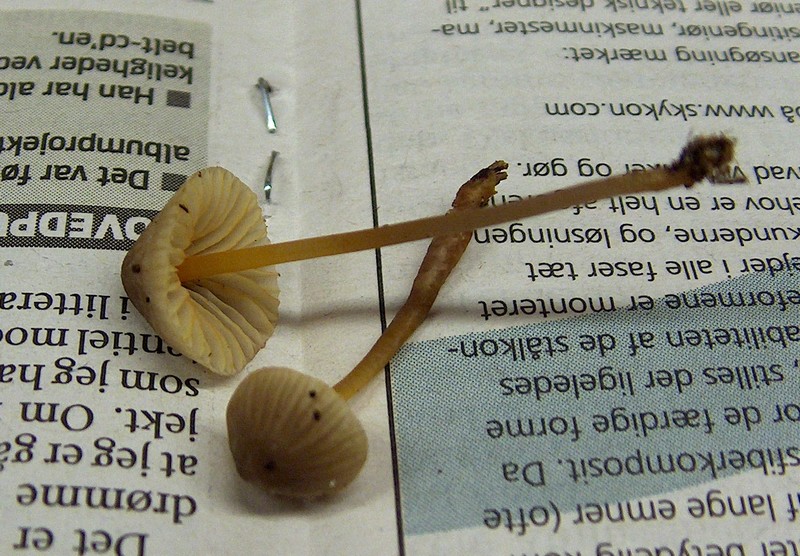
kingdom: Fungi
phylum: Basidiomycota
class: Agaricomycetes
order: Agaricales
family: Mycenaceae
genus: Mycena
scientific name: Mycena aurantiomarginata
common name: orangeægget huesvamp
